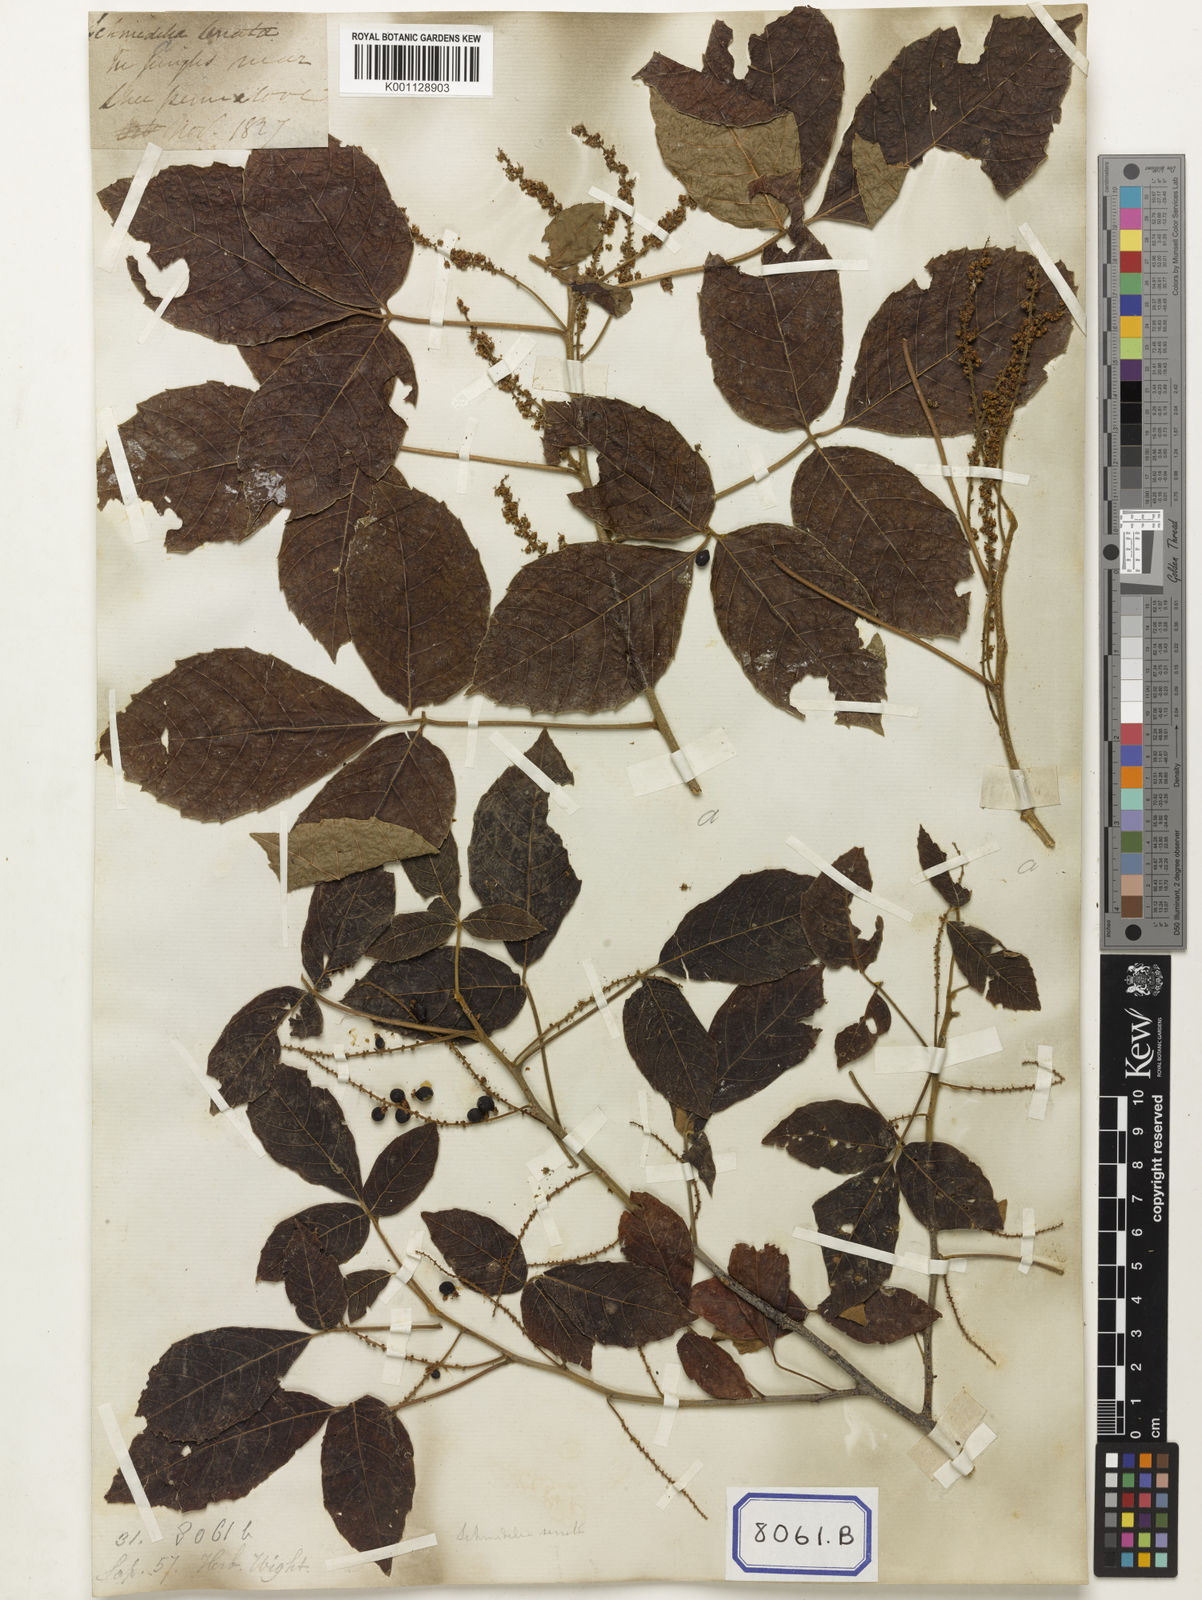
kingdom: Plantae
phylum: Tracheophyta
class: Magnoliopsida
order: Sapindales
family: Sapindaceae
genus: Allophylus
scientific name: Allophylus serratus
